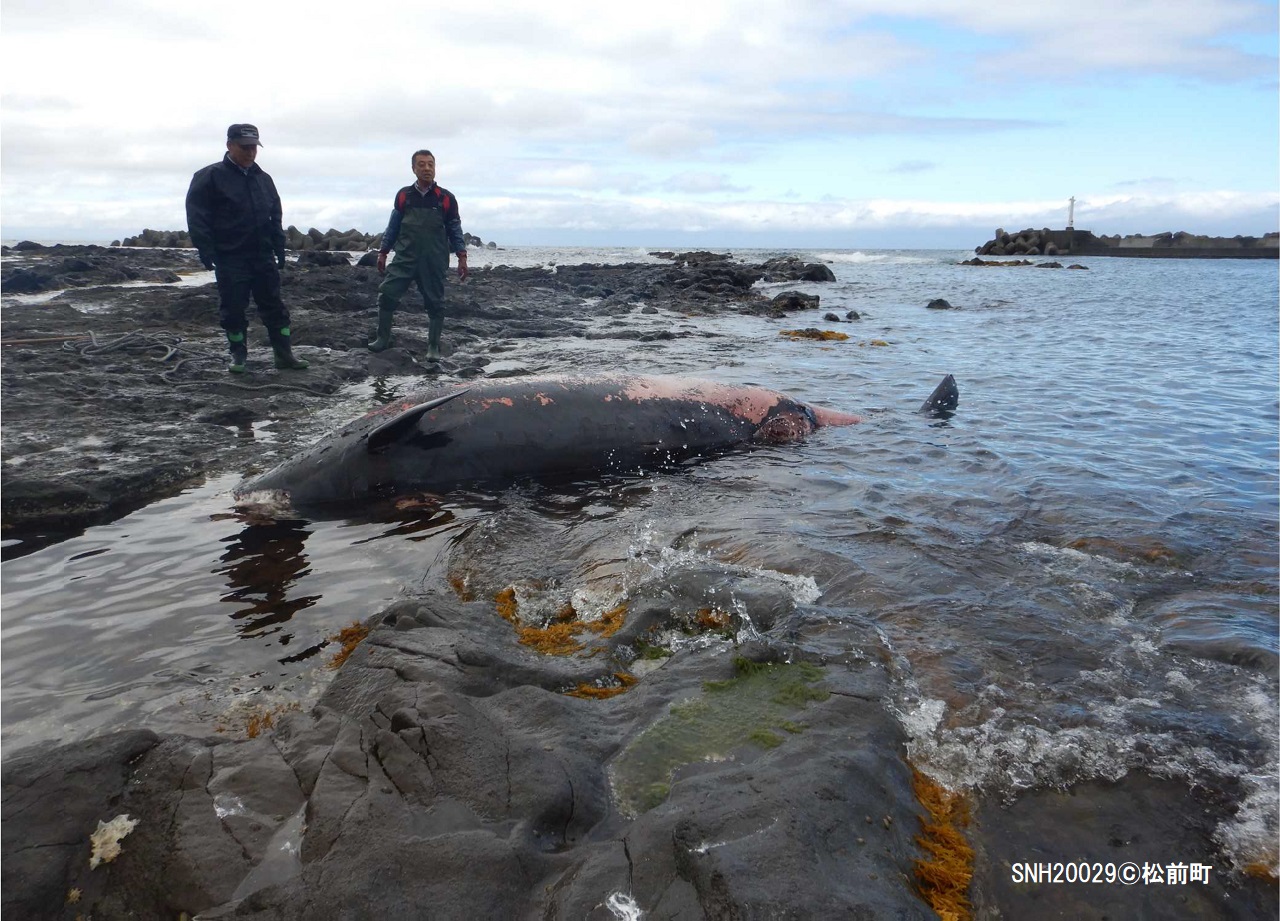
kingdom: Animalia
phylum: Chordata
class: Mammalia
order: Cetacea
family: Hyperoodontidae
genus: Mesoplodon
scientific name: Mesoplodon stejnegeri
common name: Stejneger's beaked whale
